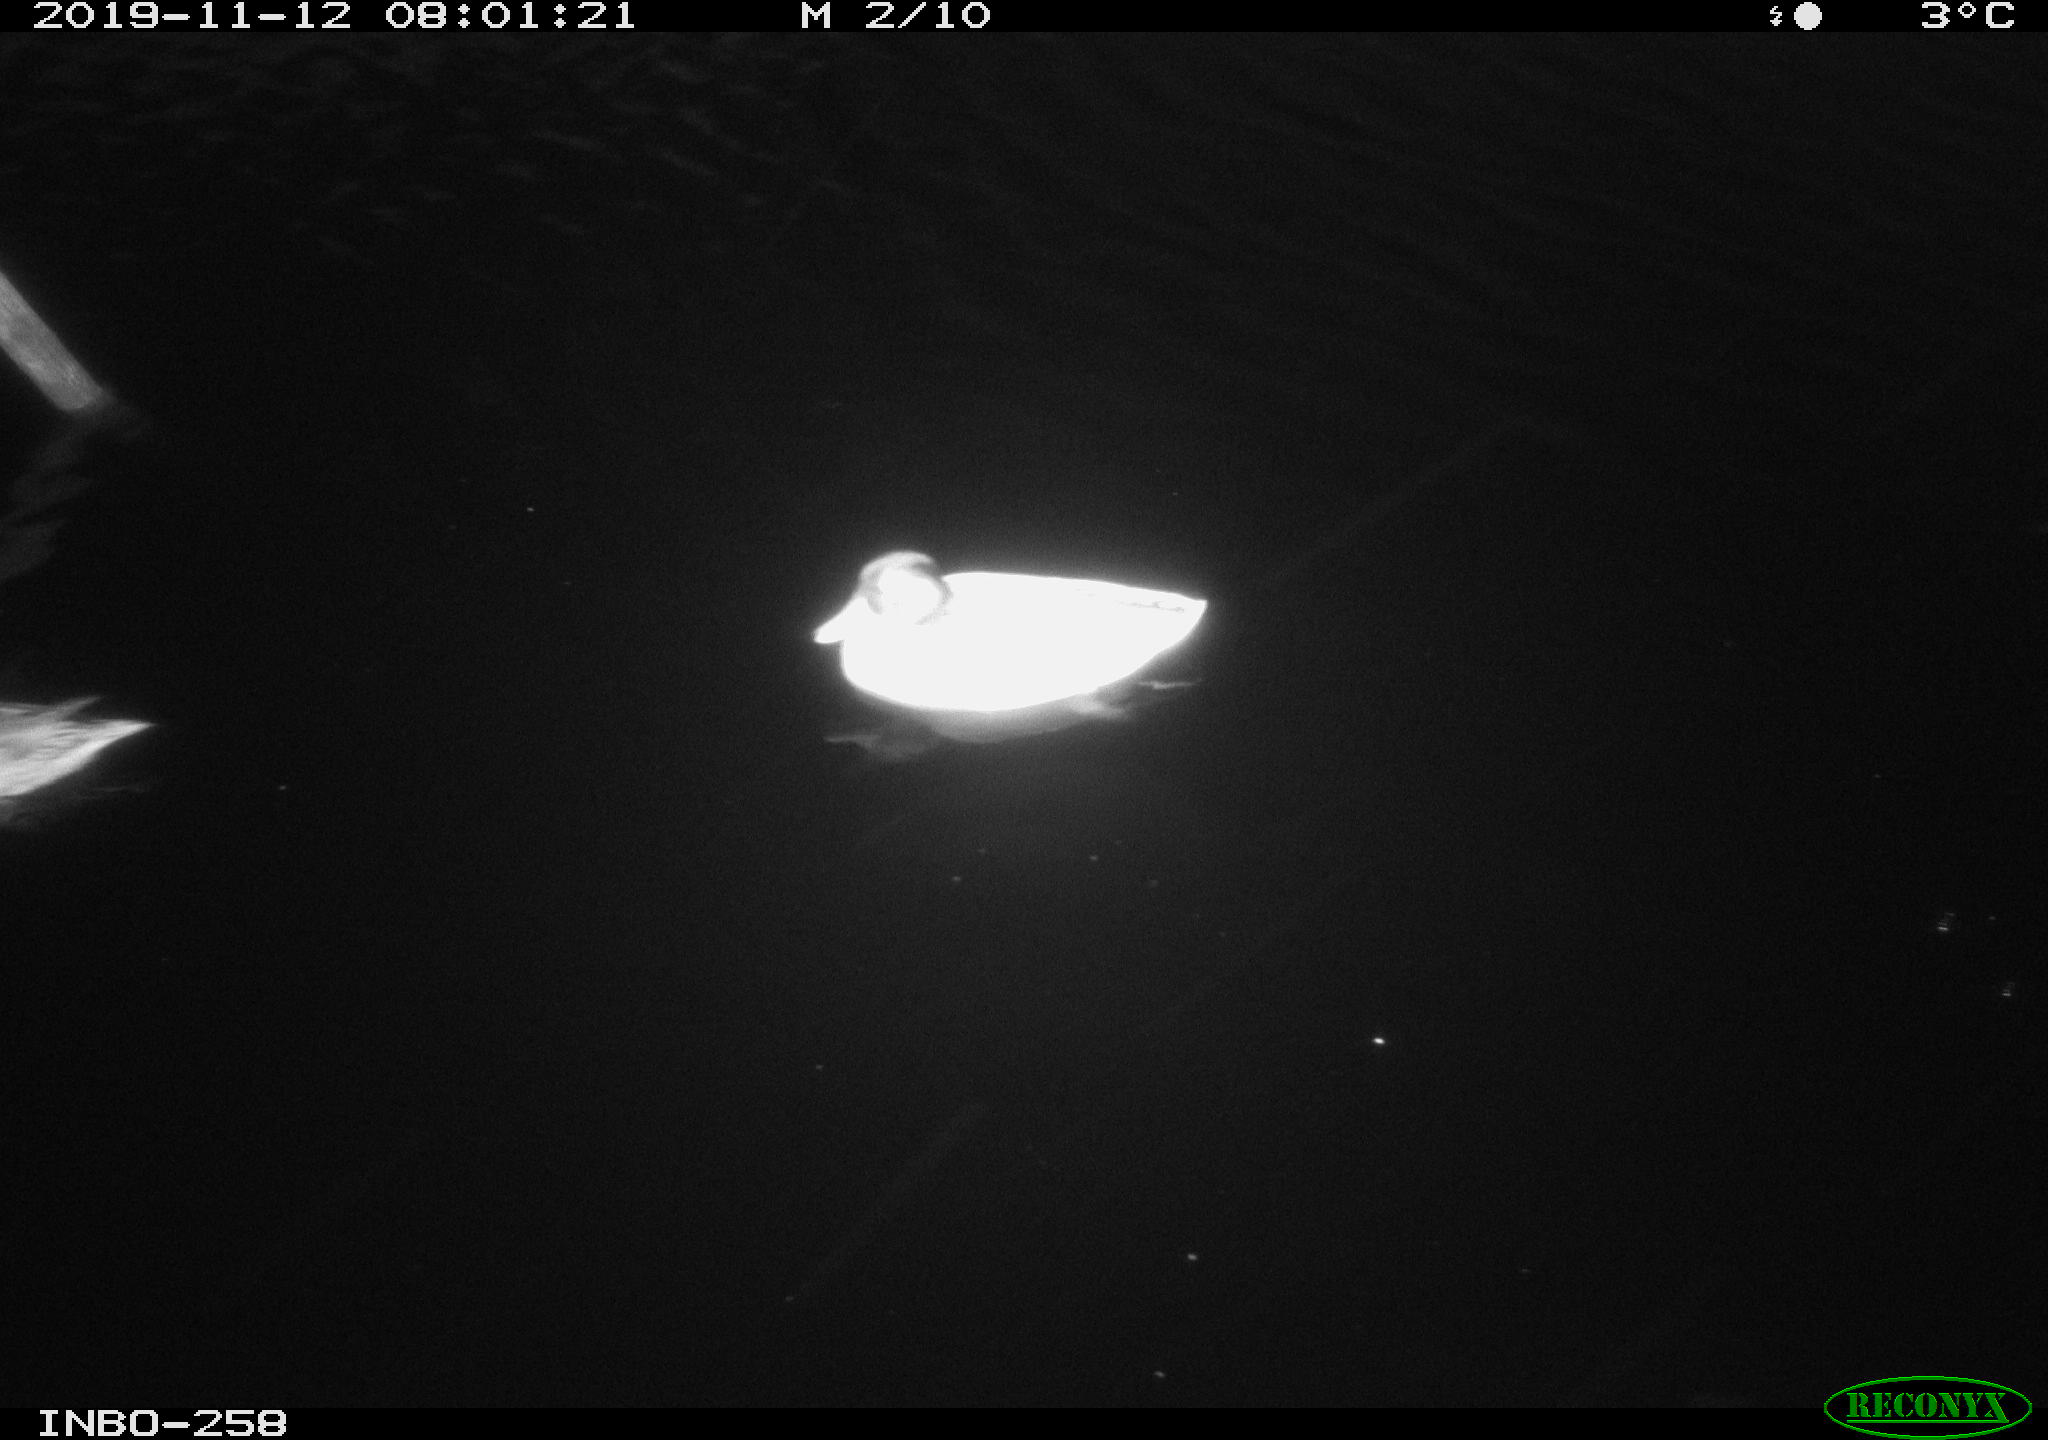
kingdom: Animalia
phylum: Chordata
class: Aves
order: Anseriformes
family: Anatidae
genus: Anas
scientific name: Anas platyrhynchos
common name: Mallard
